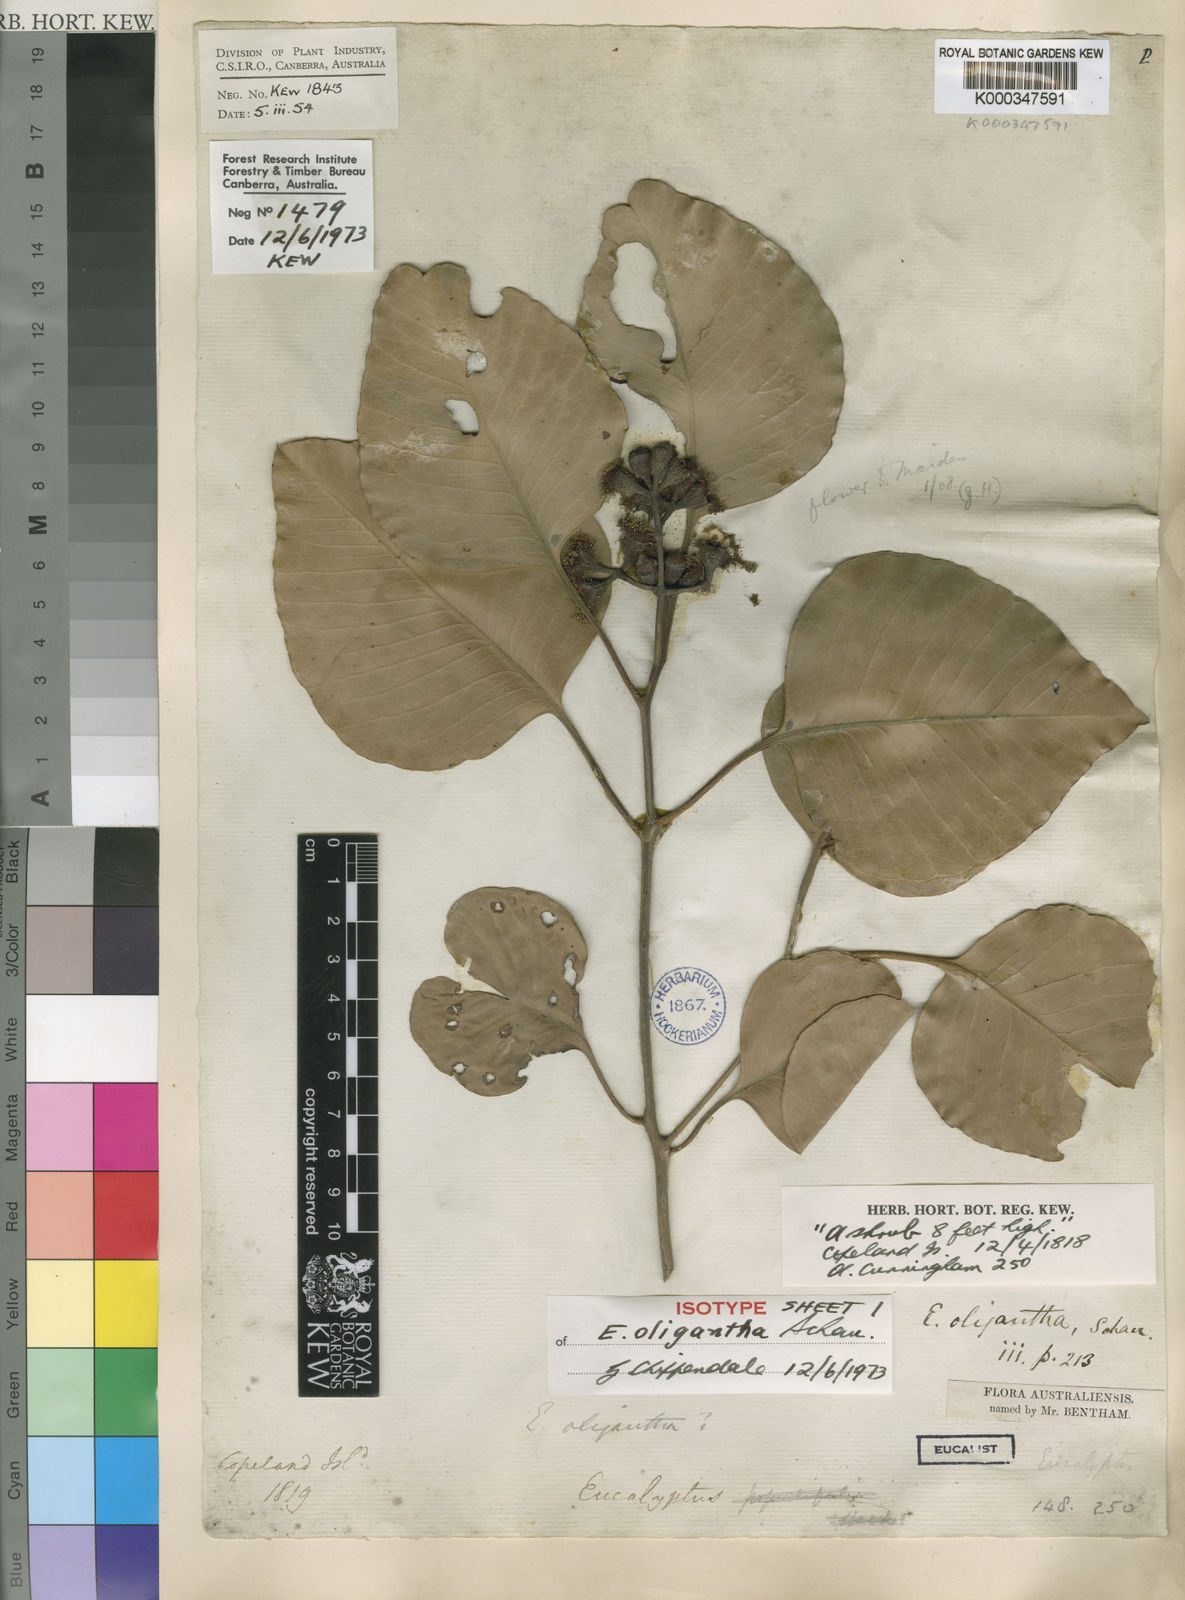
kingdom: Plantae
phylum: Tracheophyta
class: Magnoliopsida
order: Myrtales
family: Myrtaceae
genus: Eucalyptus
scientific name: Eucalyptus oligantha
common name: Broadleaf-box
